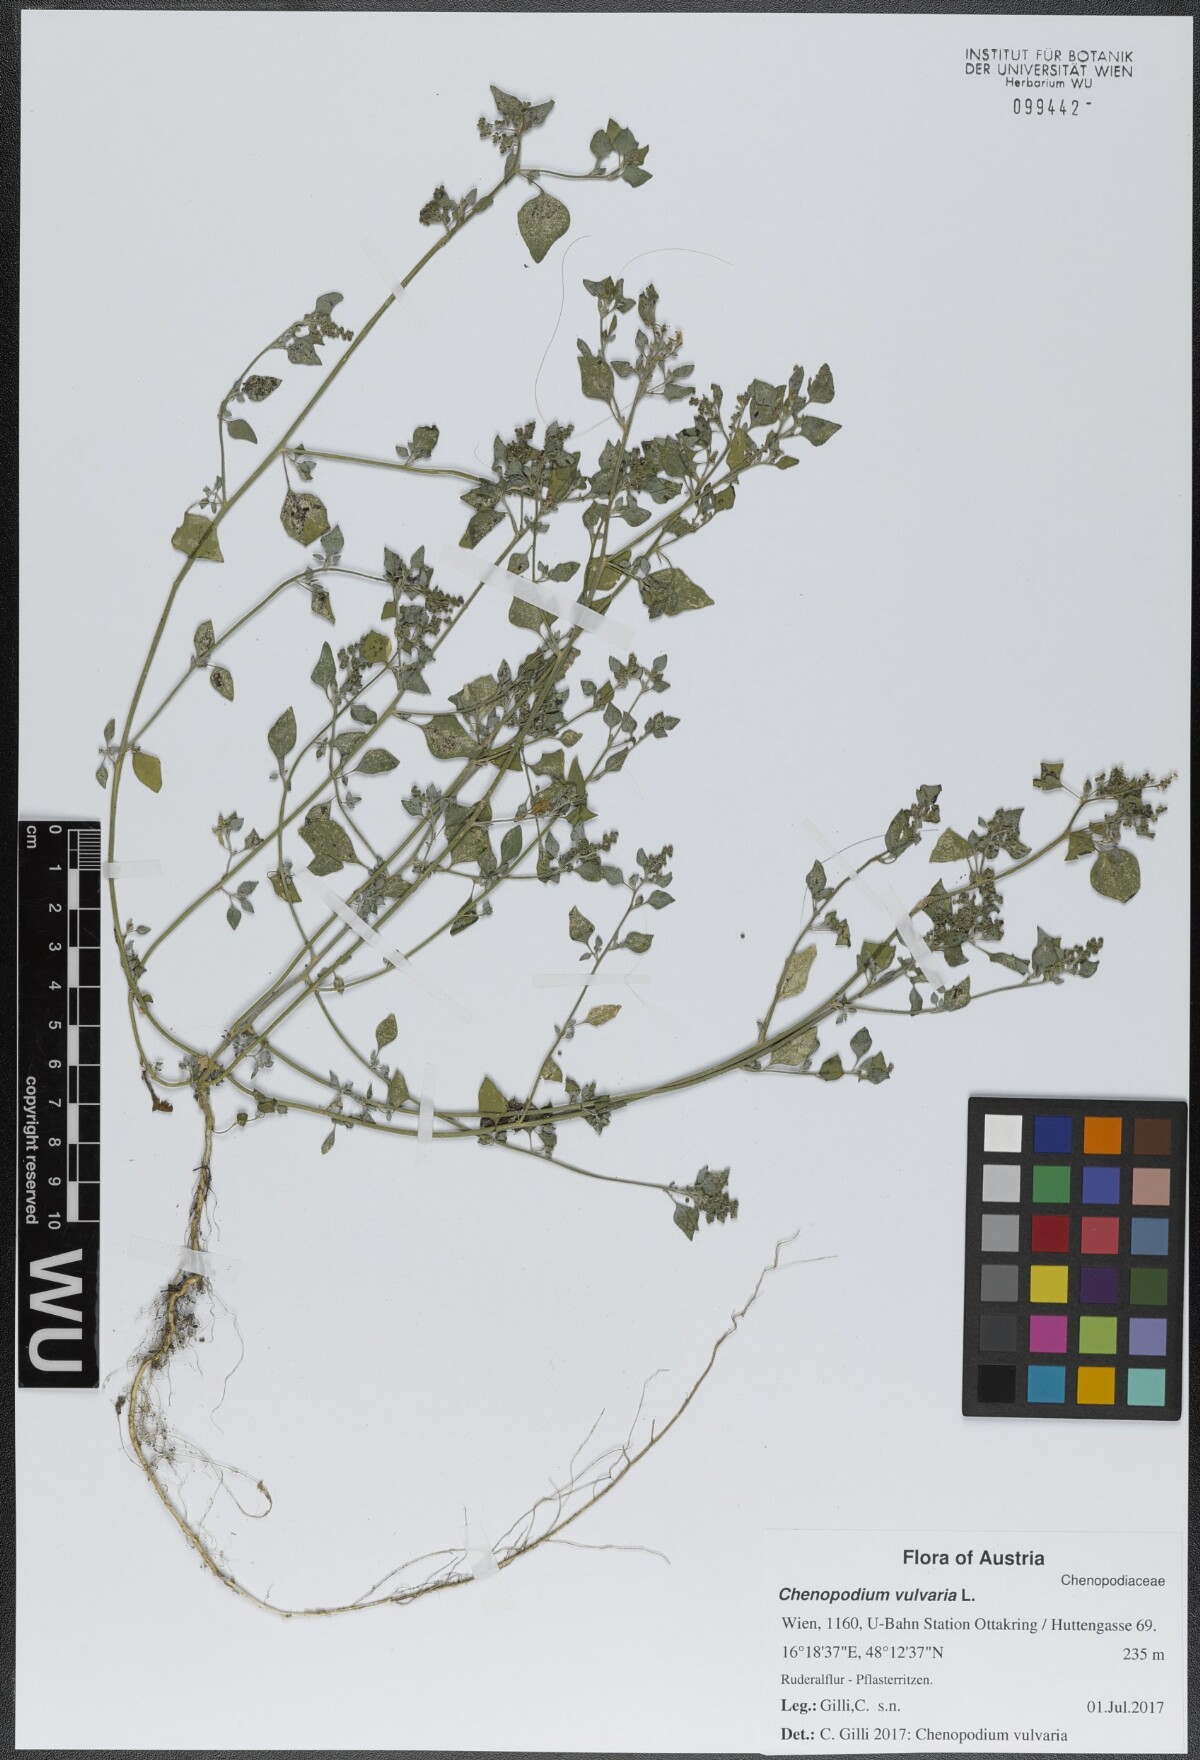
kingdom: Plantae
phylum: Tracheophyta
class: Magnoliopsida
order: Caryophyllales
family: Amaranthaceae
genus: Chenopodium
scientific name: Chenopodium vulvaria
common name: Stinking goosefoot
